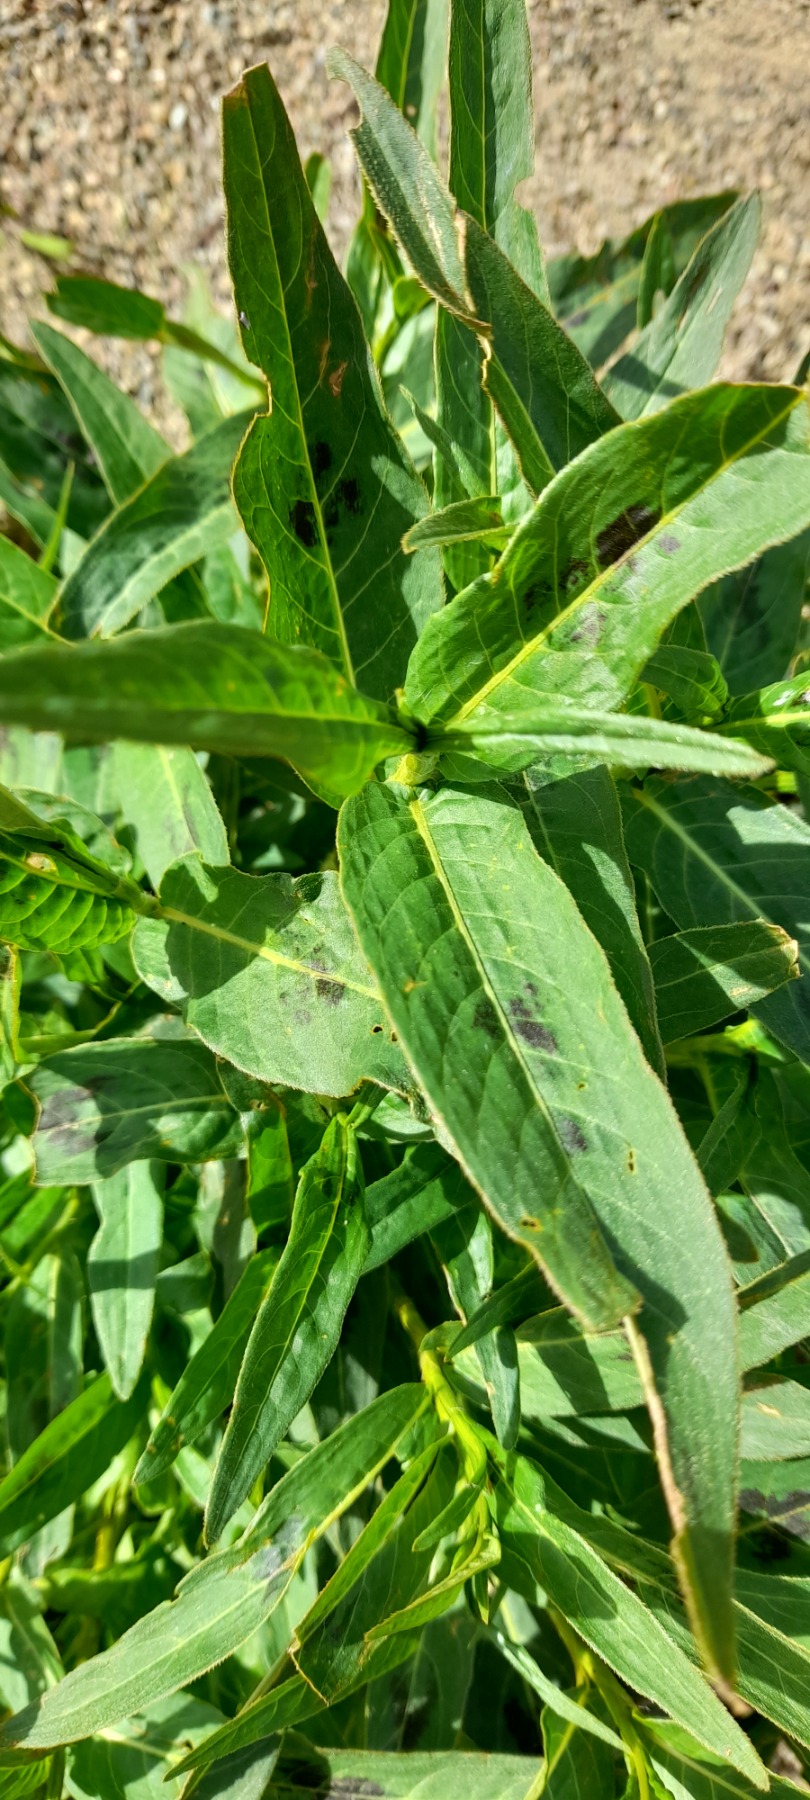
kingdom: Plantae
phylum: Tracheophyta
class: Magnoliopsida
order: Caryophyllales
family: Polygonaceae
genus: Persicaria
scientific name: Persicaria amphibia
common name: Vand-pileurt
